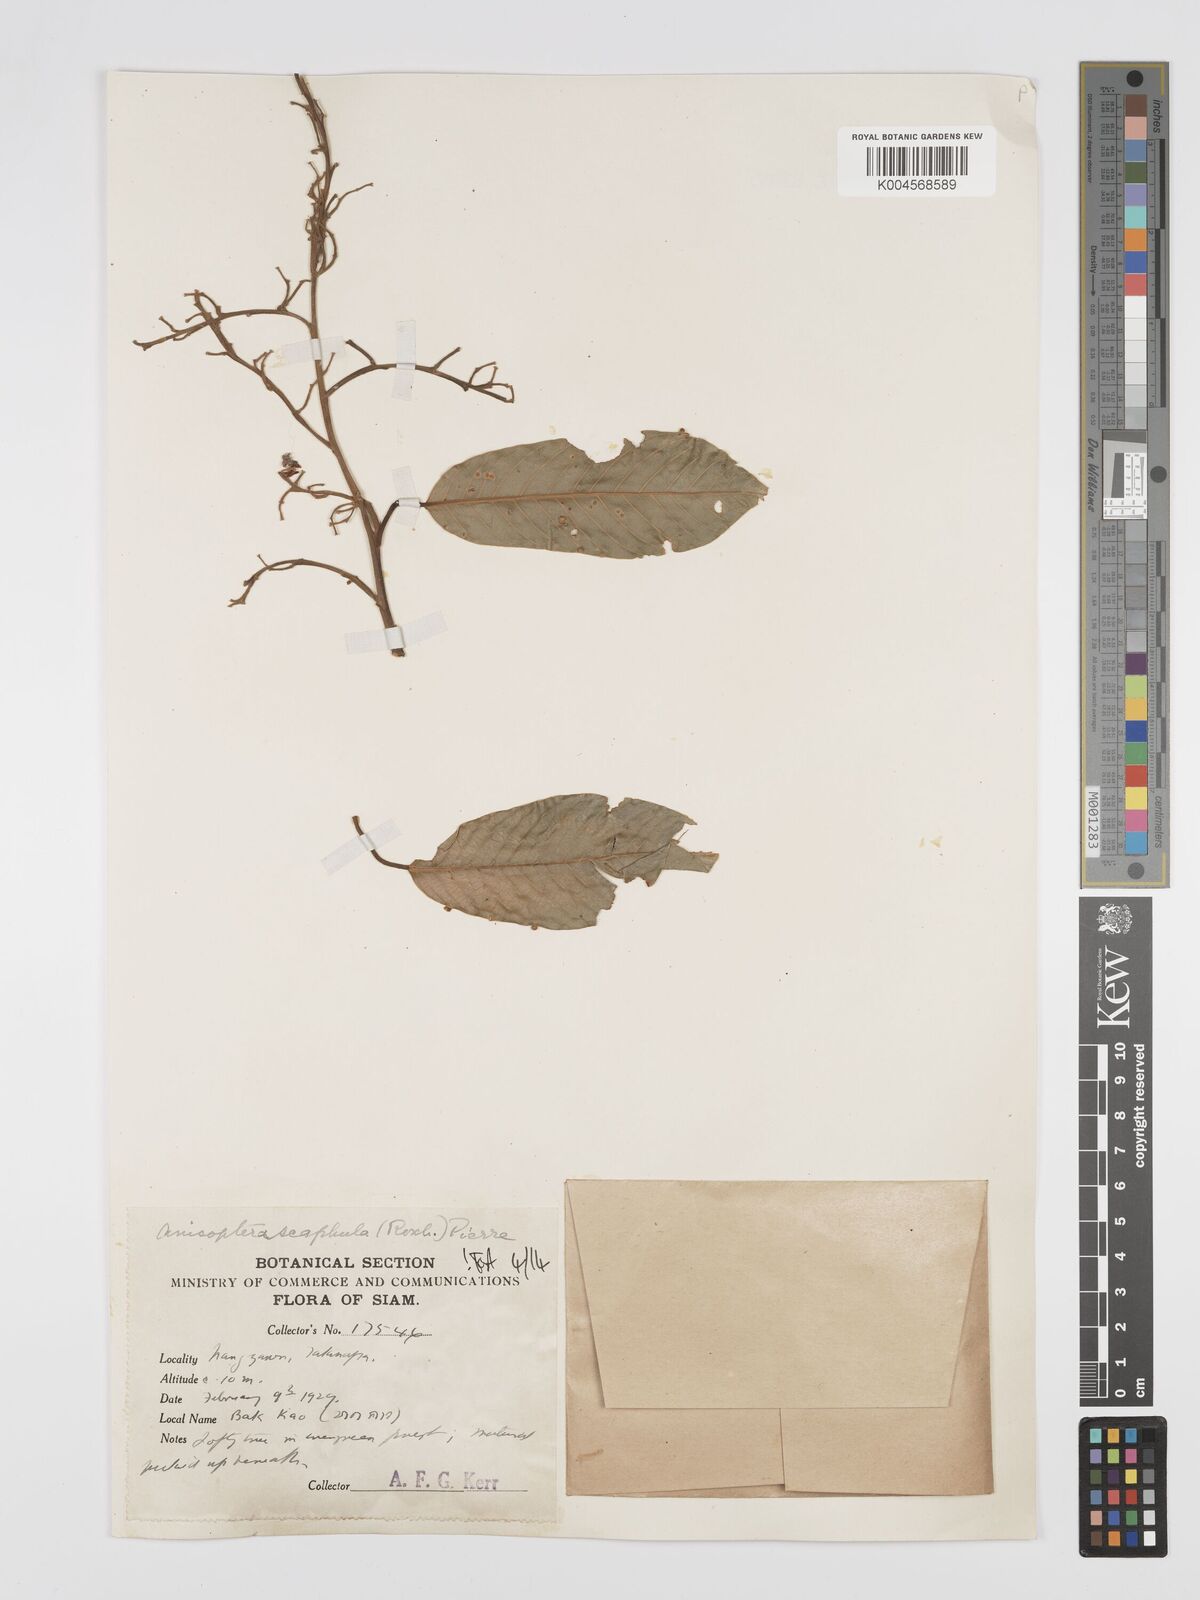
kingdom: Plantae
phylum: Tracheophyta
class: Magnoliopsida
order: Malvales
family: Dipterocarpaceae
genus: Anisoptera
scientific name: Anisoptera scaphula
